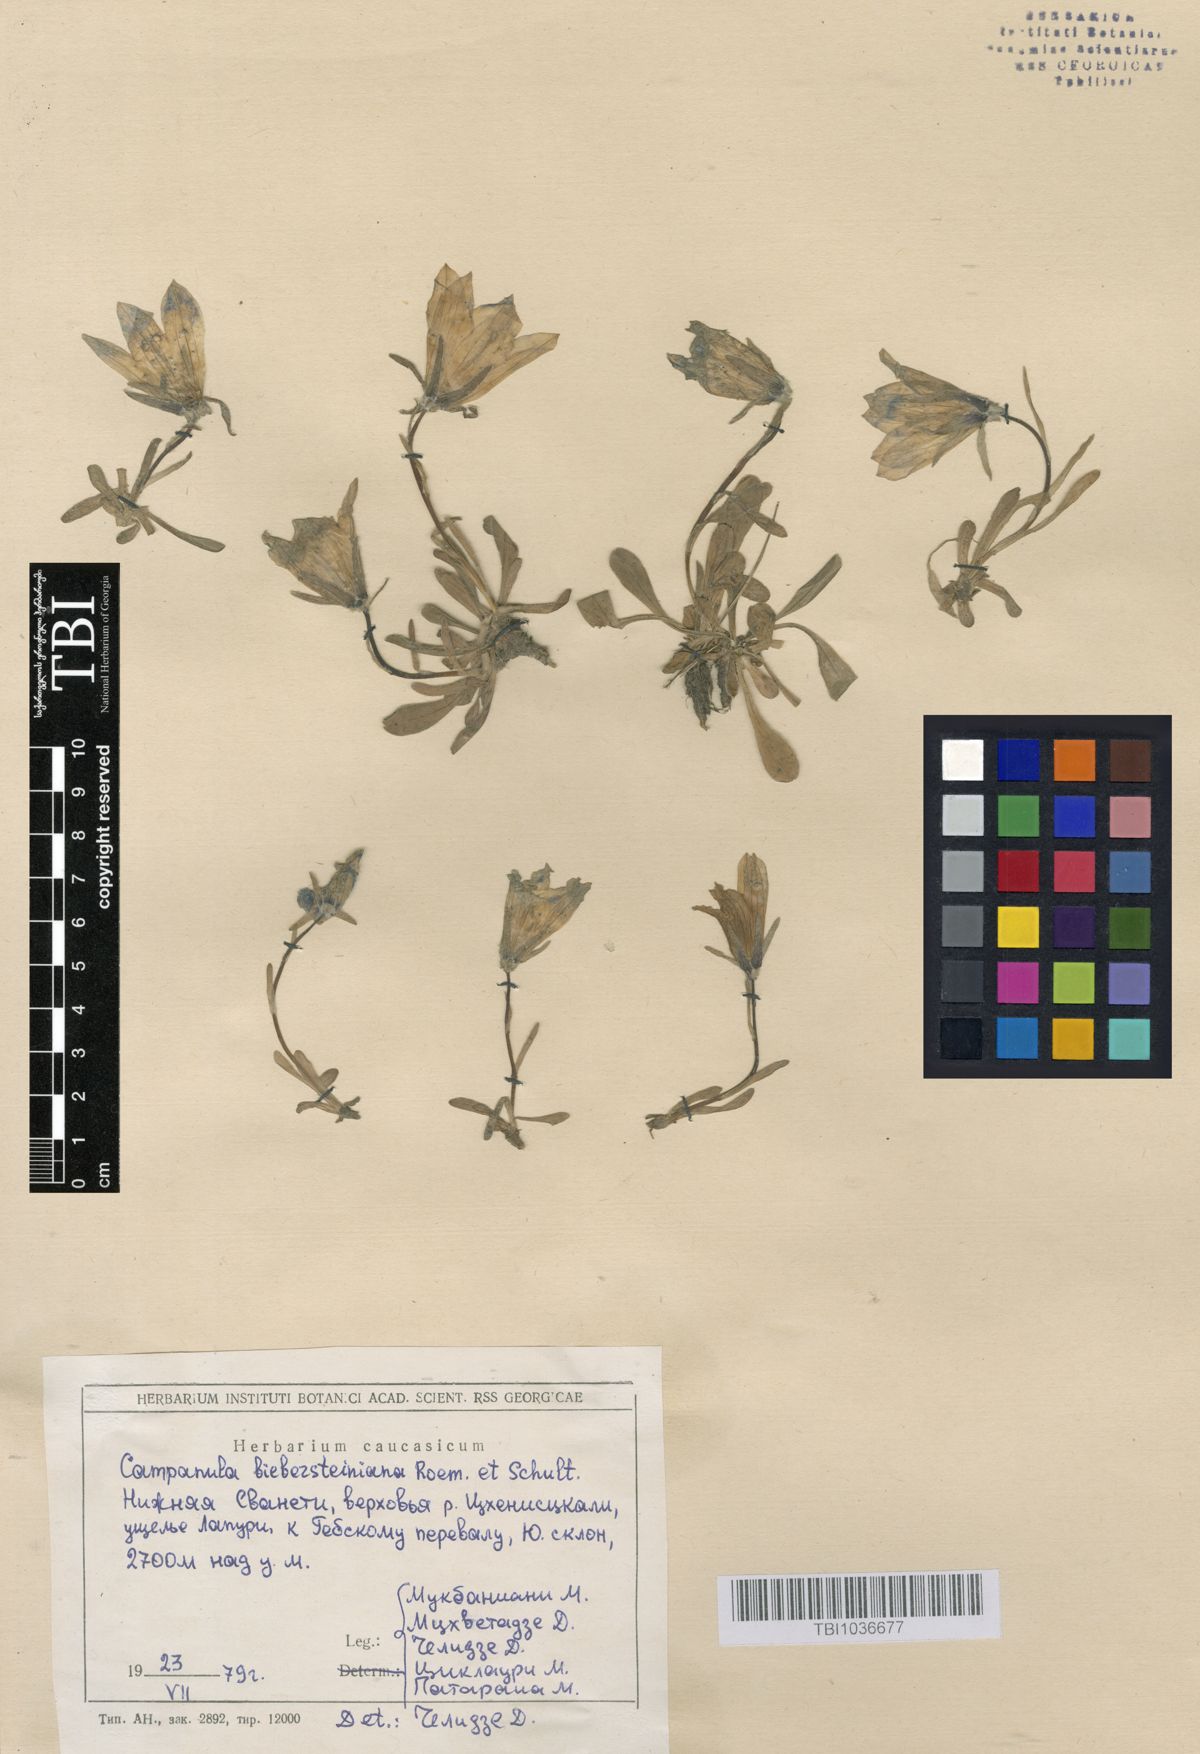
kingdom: Plantae
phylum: Tracheophyta
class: Magnoliopsida
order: Asterales
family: Campanulaceae
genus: Campanula
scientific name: Campanula tridentata
